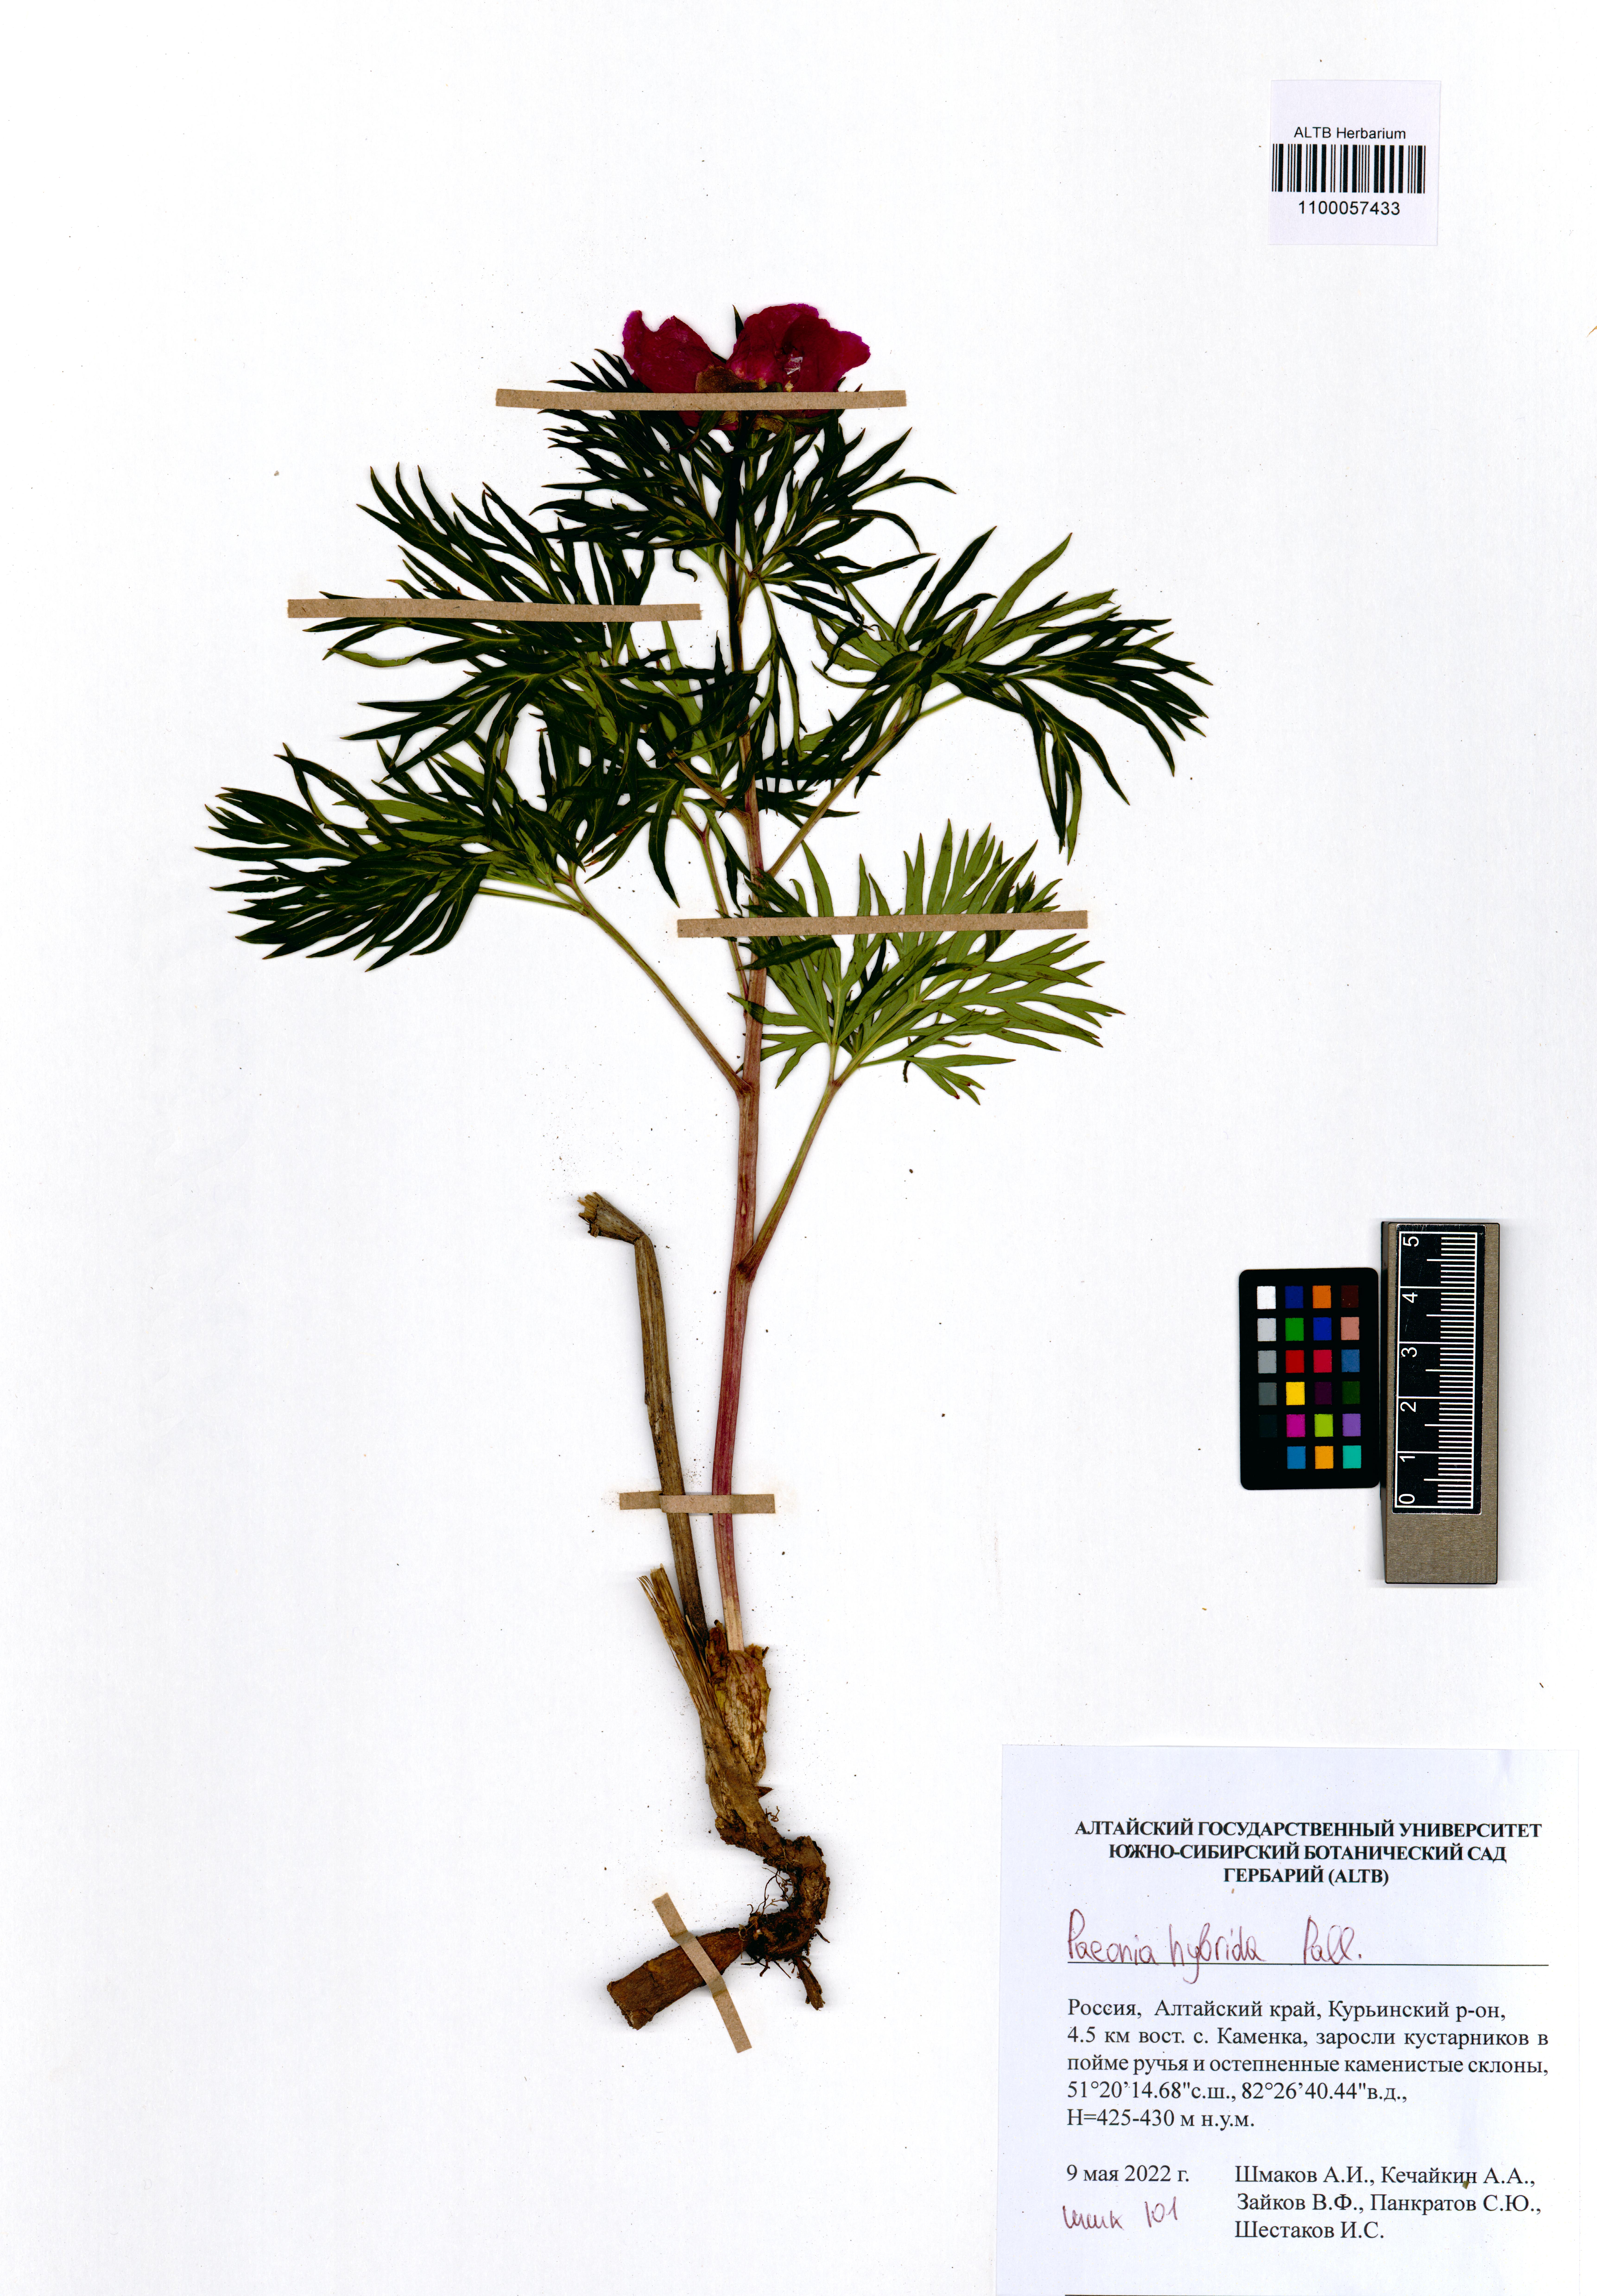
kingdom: Plantae
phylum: Tracheophyta
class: Magnoliopsida
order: Saxifragales
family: Paeoniaceae
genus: Paeonia
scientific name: Paeonia
